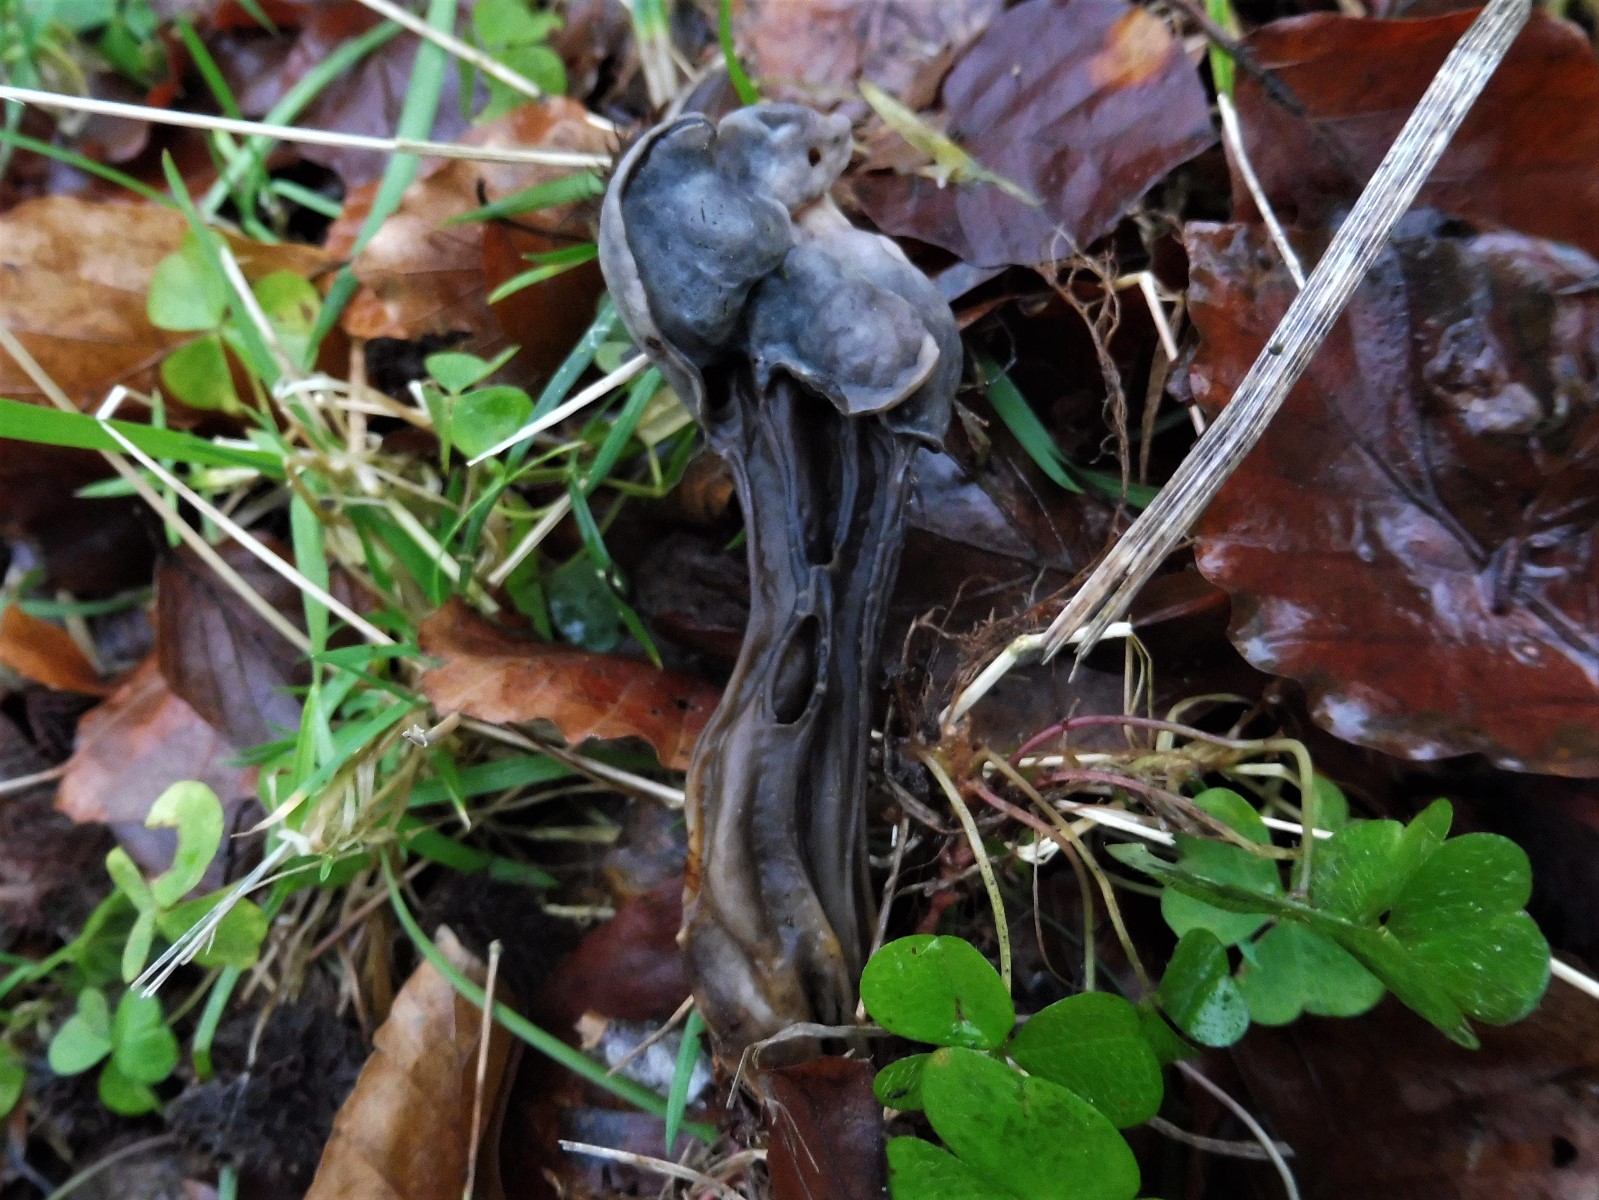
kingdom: Fungi
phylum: Ascomycota
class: Pezizomycetes
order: Pezizales
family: Helvellaceae
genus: Helvella
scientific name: Helvella lacunosa
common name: grubet foldhat
